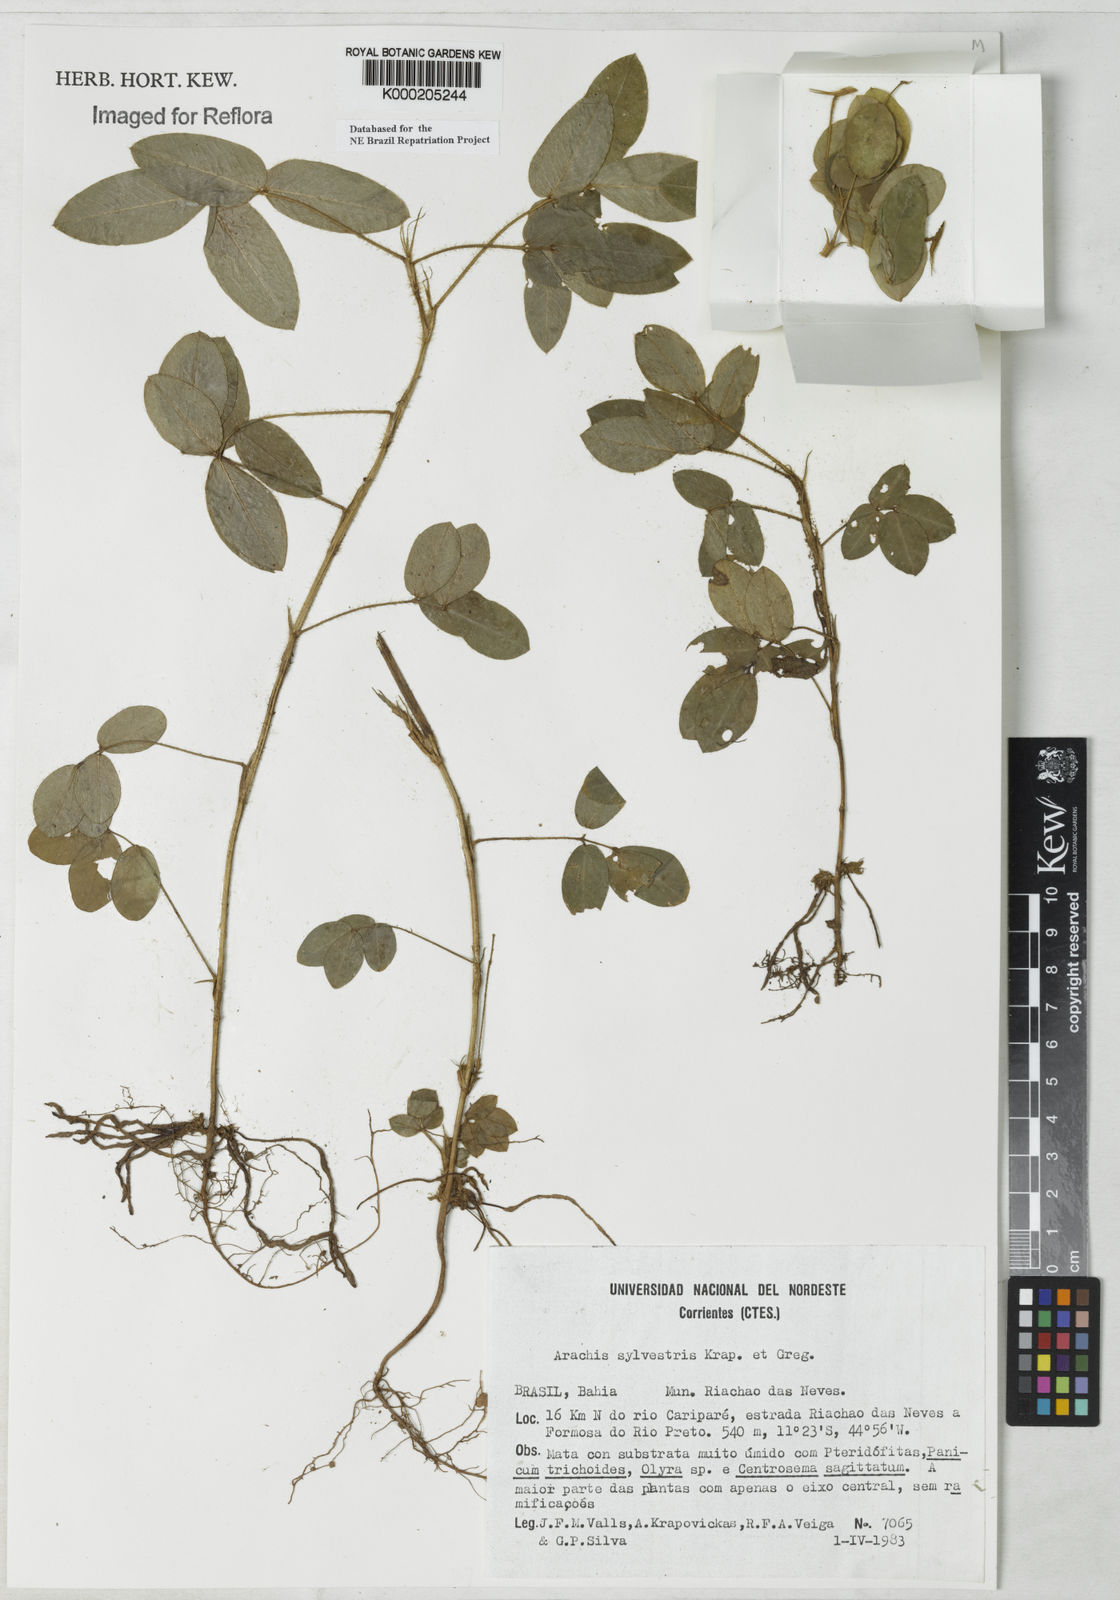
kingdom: Plantae
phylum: Tracheophyta
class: Magnoliopsida
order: Fabales
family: Fabaceae
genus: Arachis
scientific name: Arachis pusilla
